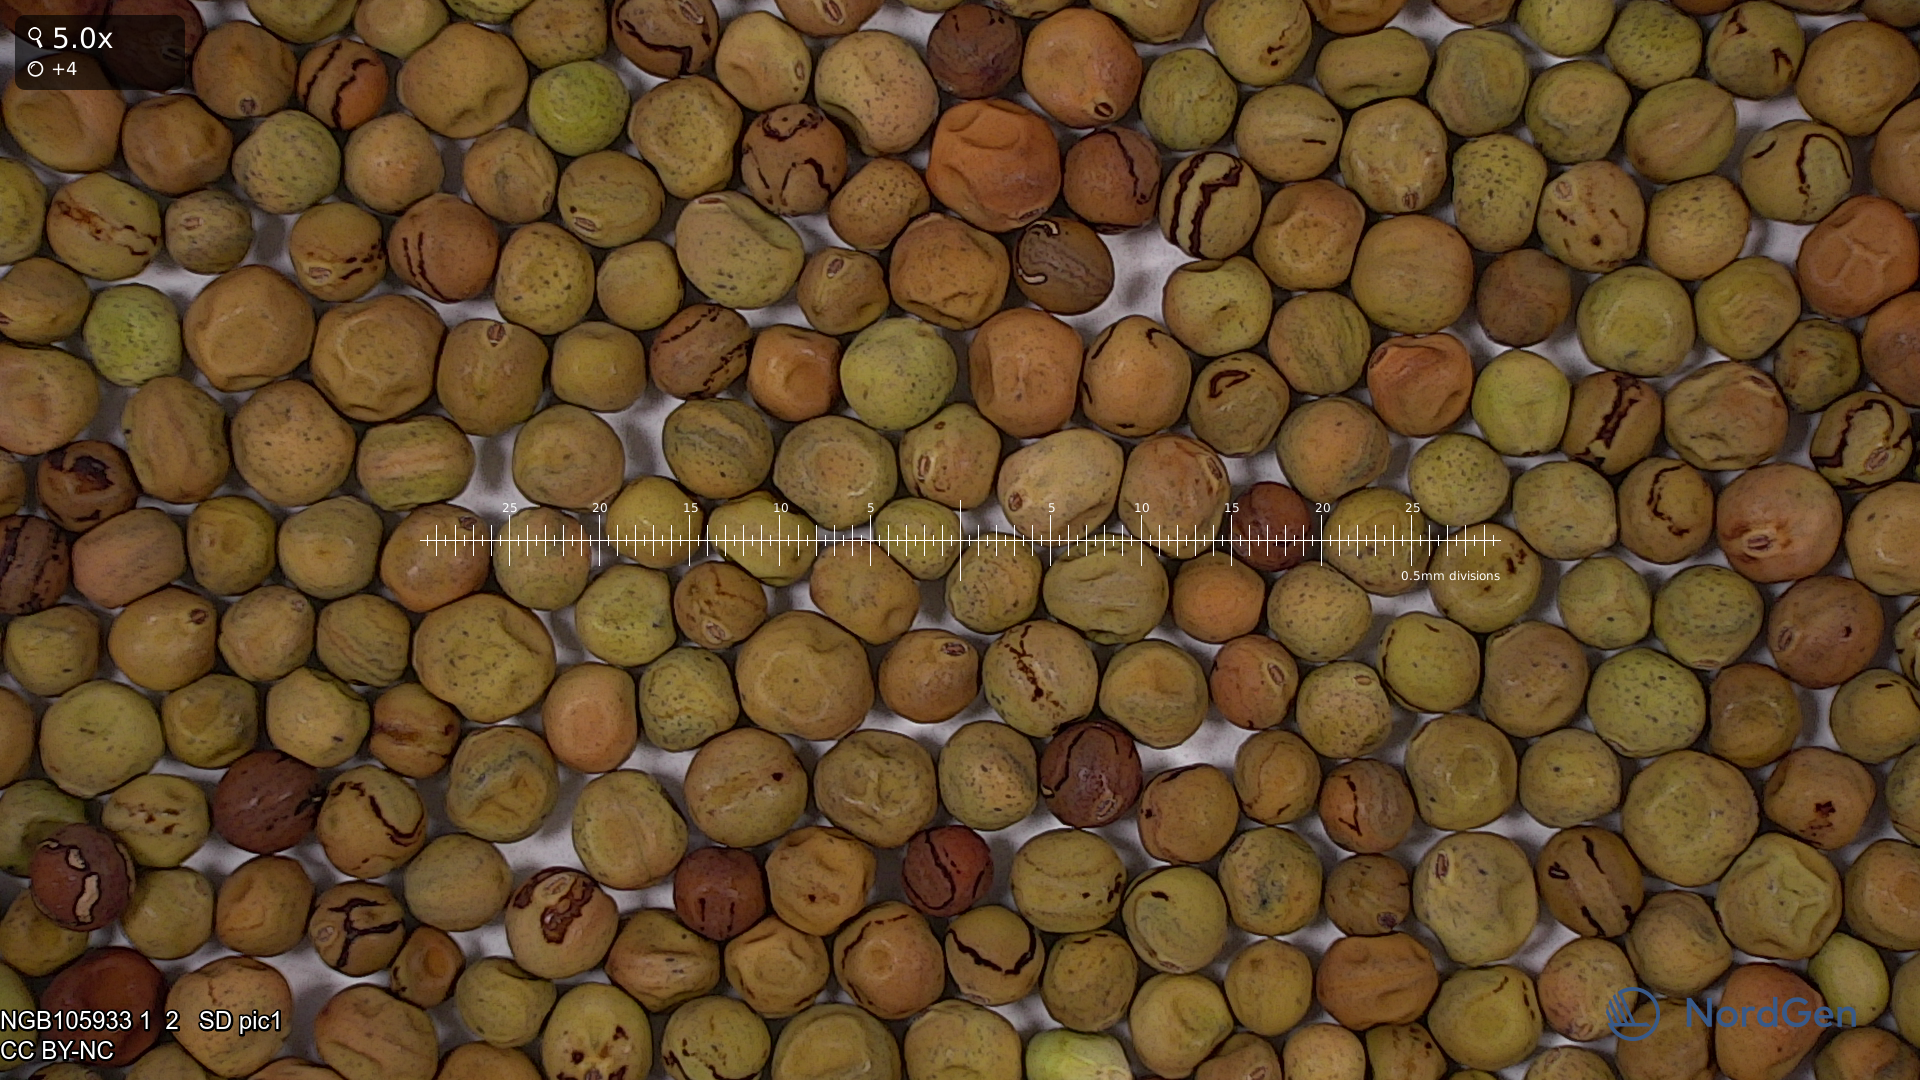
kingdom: Plantae
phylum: Tracheophyta
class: Magnoliopsida
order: Fabales
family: Fabaceae
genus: Lathyrus
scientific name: Lathyrus oleraceus
